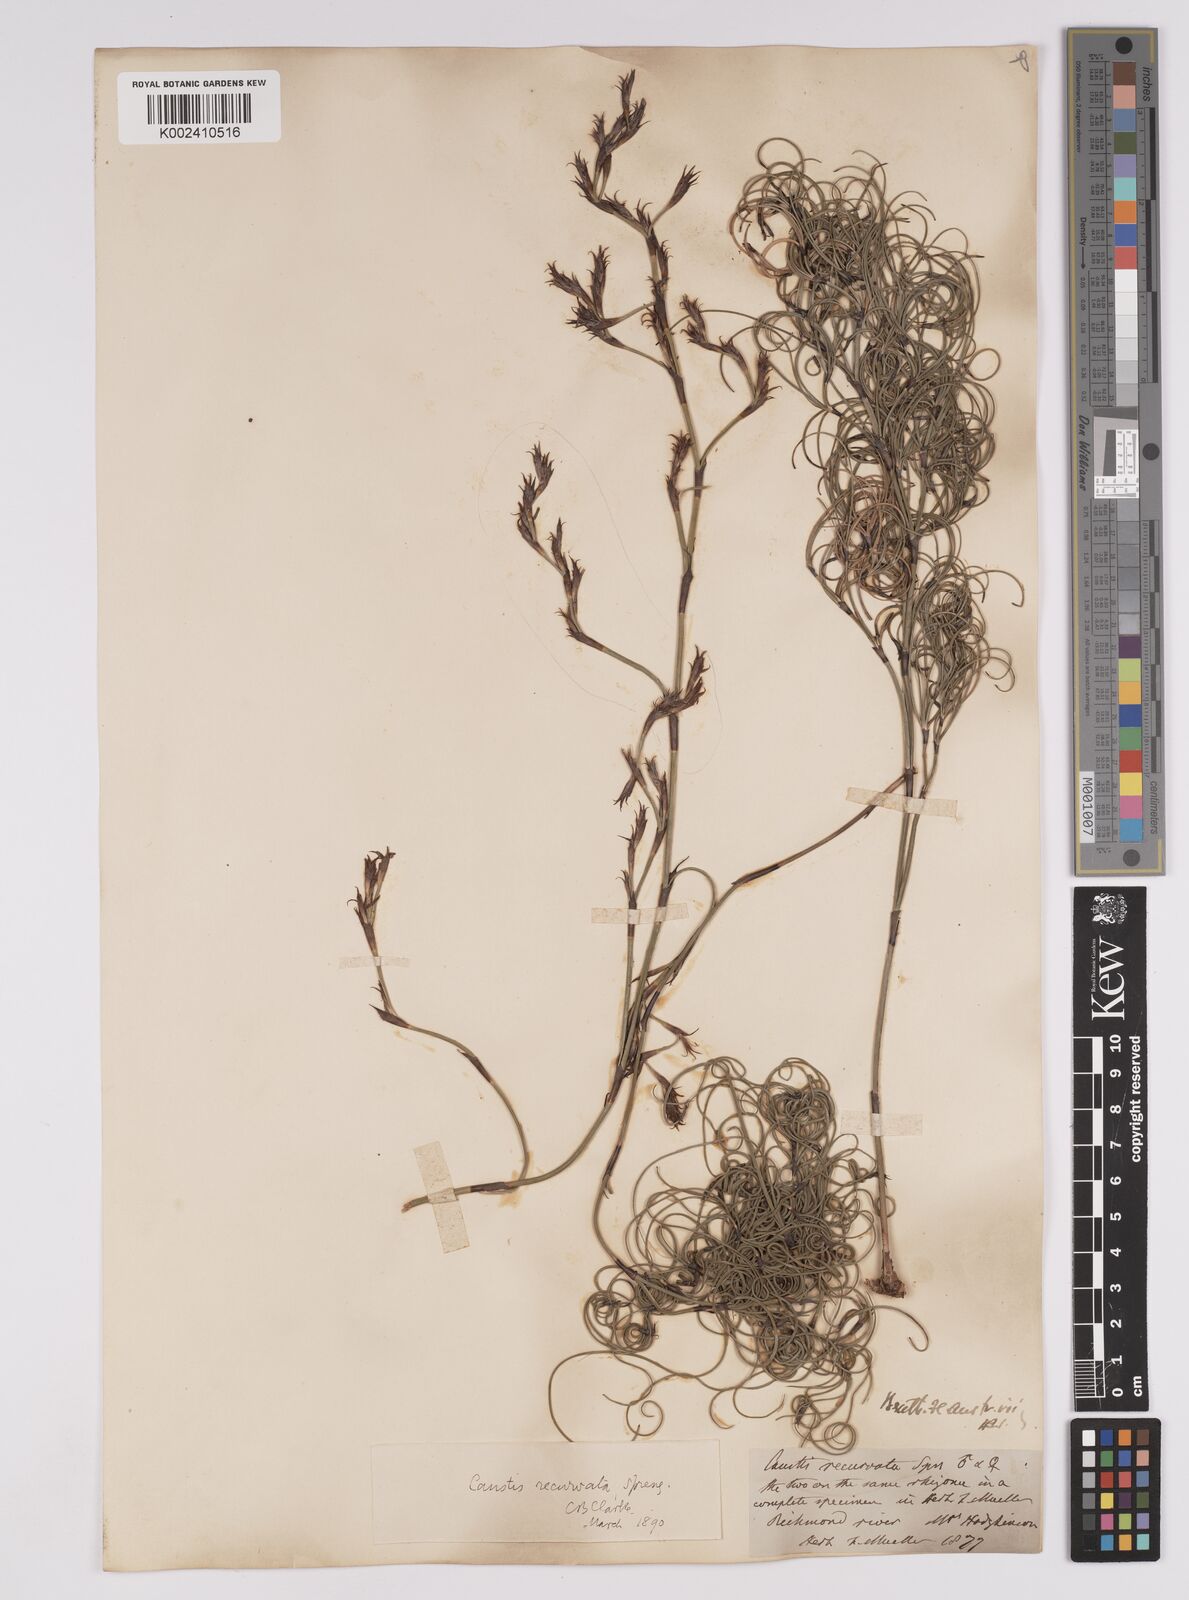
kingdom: Plantae
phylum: Tracheophyta
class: Liliopsida
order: Poales
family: Cyperaceae
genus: Caustis
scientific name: Caustis recurvata
